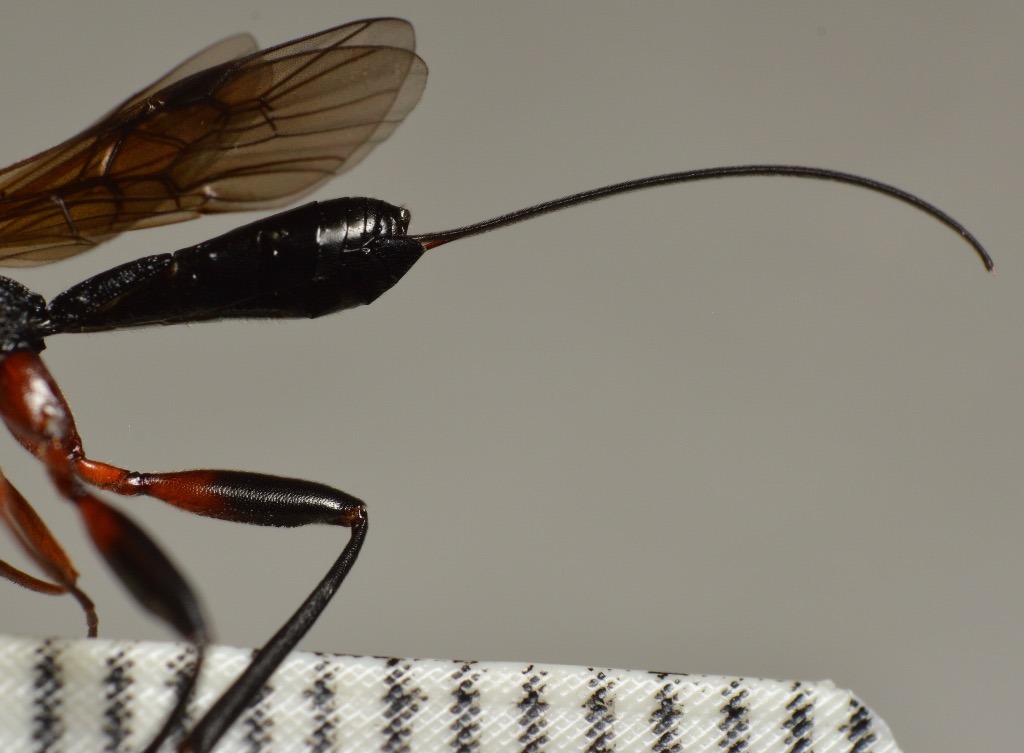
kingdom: Animalia
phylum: Arthropoda
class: Insecta
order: Hymenoptera
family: Braconidae
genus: Helcon
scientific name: Helcon nunciator
